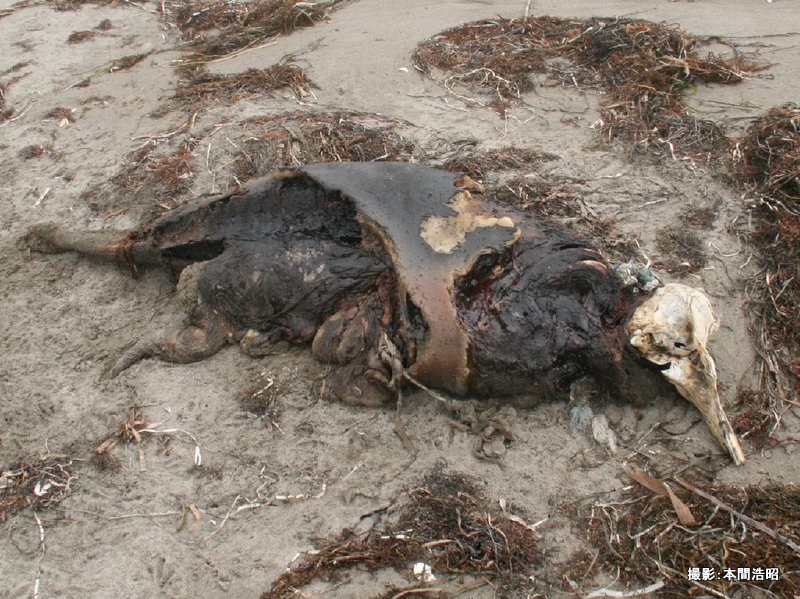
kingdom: Animalia
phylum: Chordata
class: Mammalia
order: Cetacea
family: Phocoenidae
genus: Phocoena
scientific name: Phocoena phocoena
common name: Harbour porpoise
